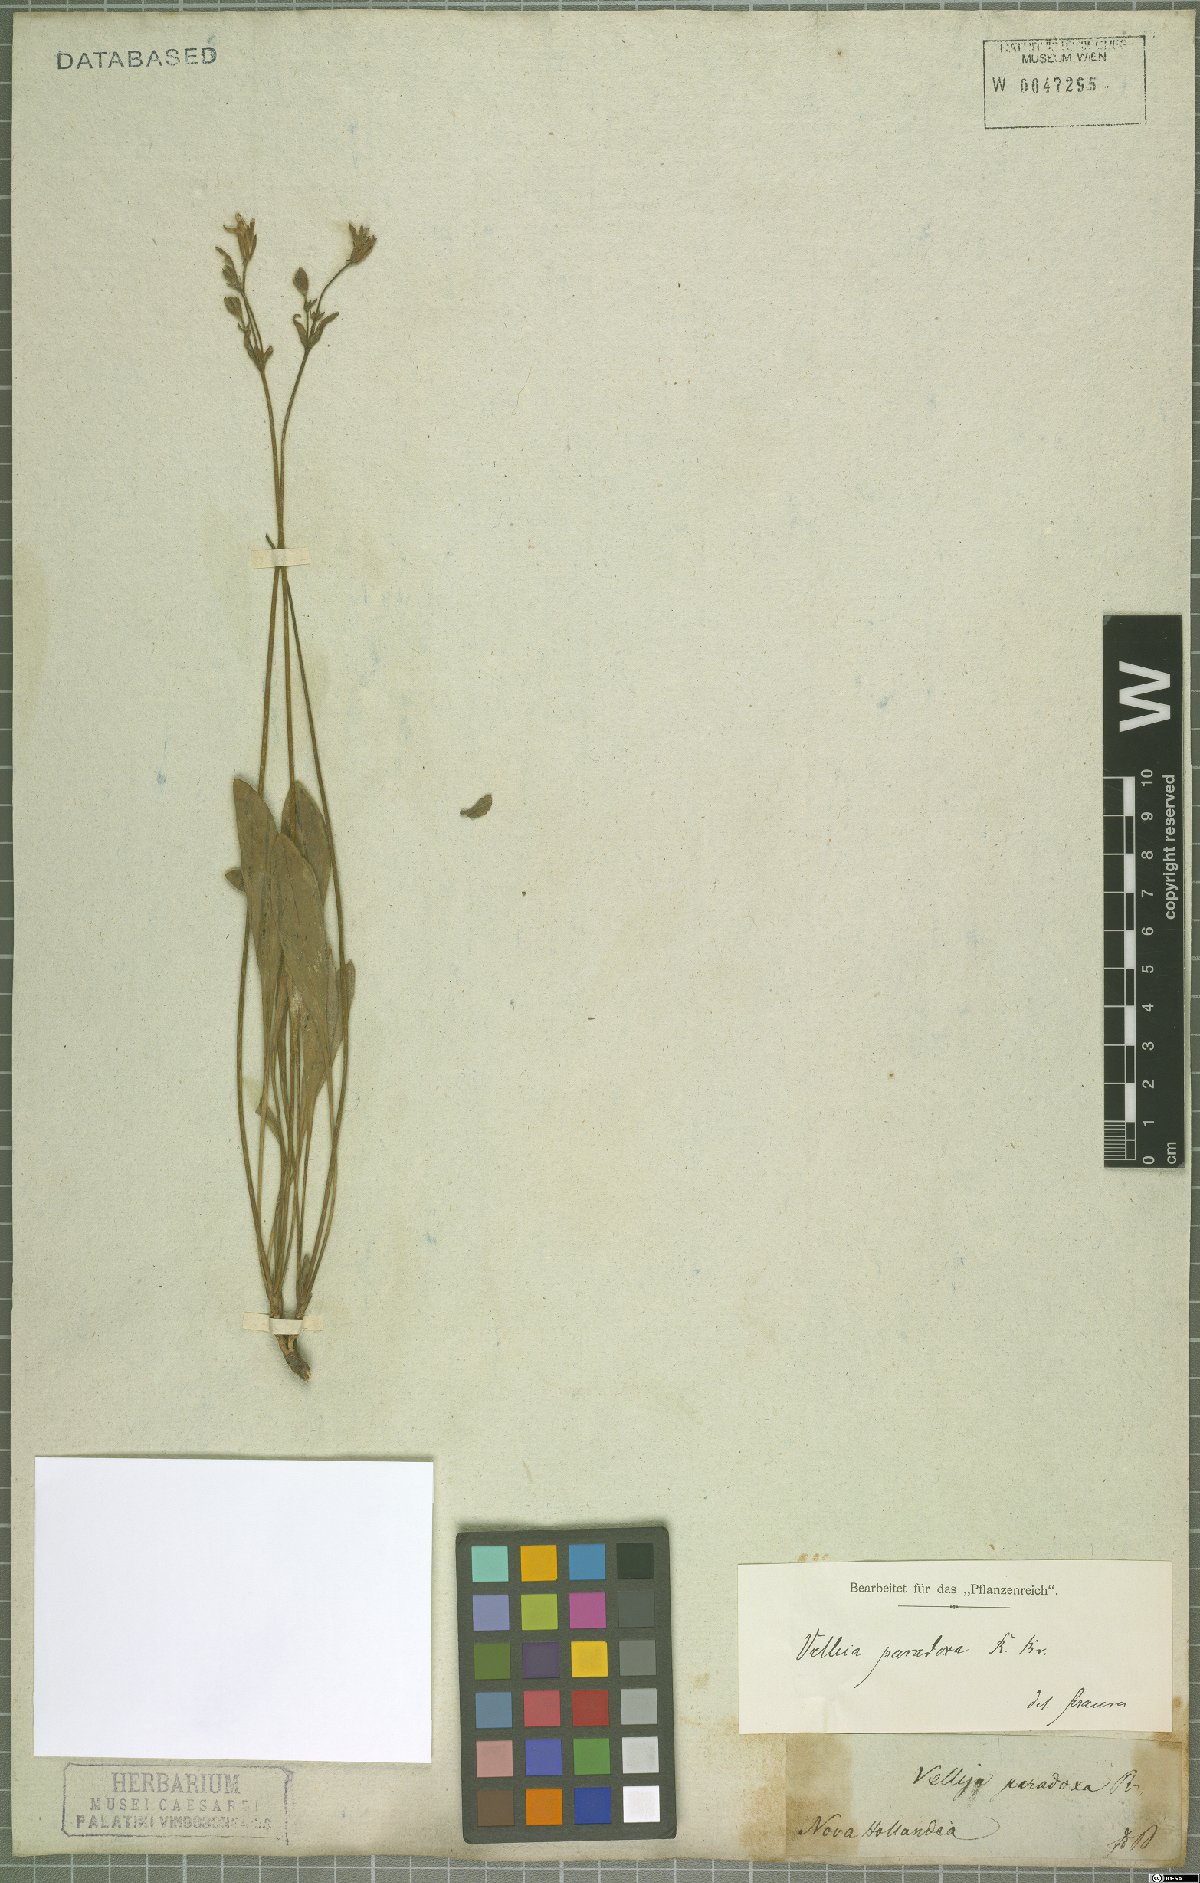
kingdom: Plantae
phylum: Tracheophyta
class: Magnoliopsida
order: Asterales
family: Goodeniaceae
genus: Goodenia
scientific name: Goodenia paradoxa
